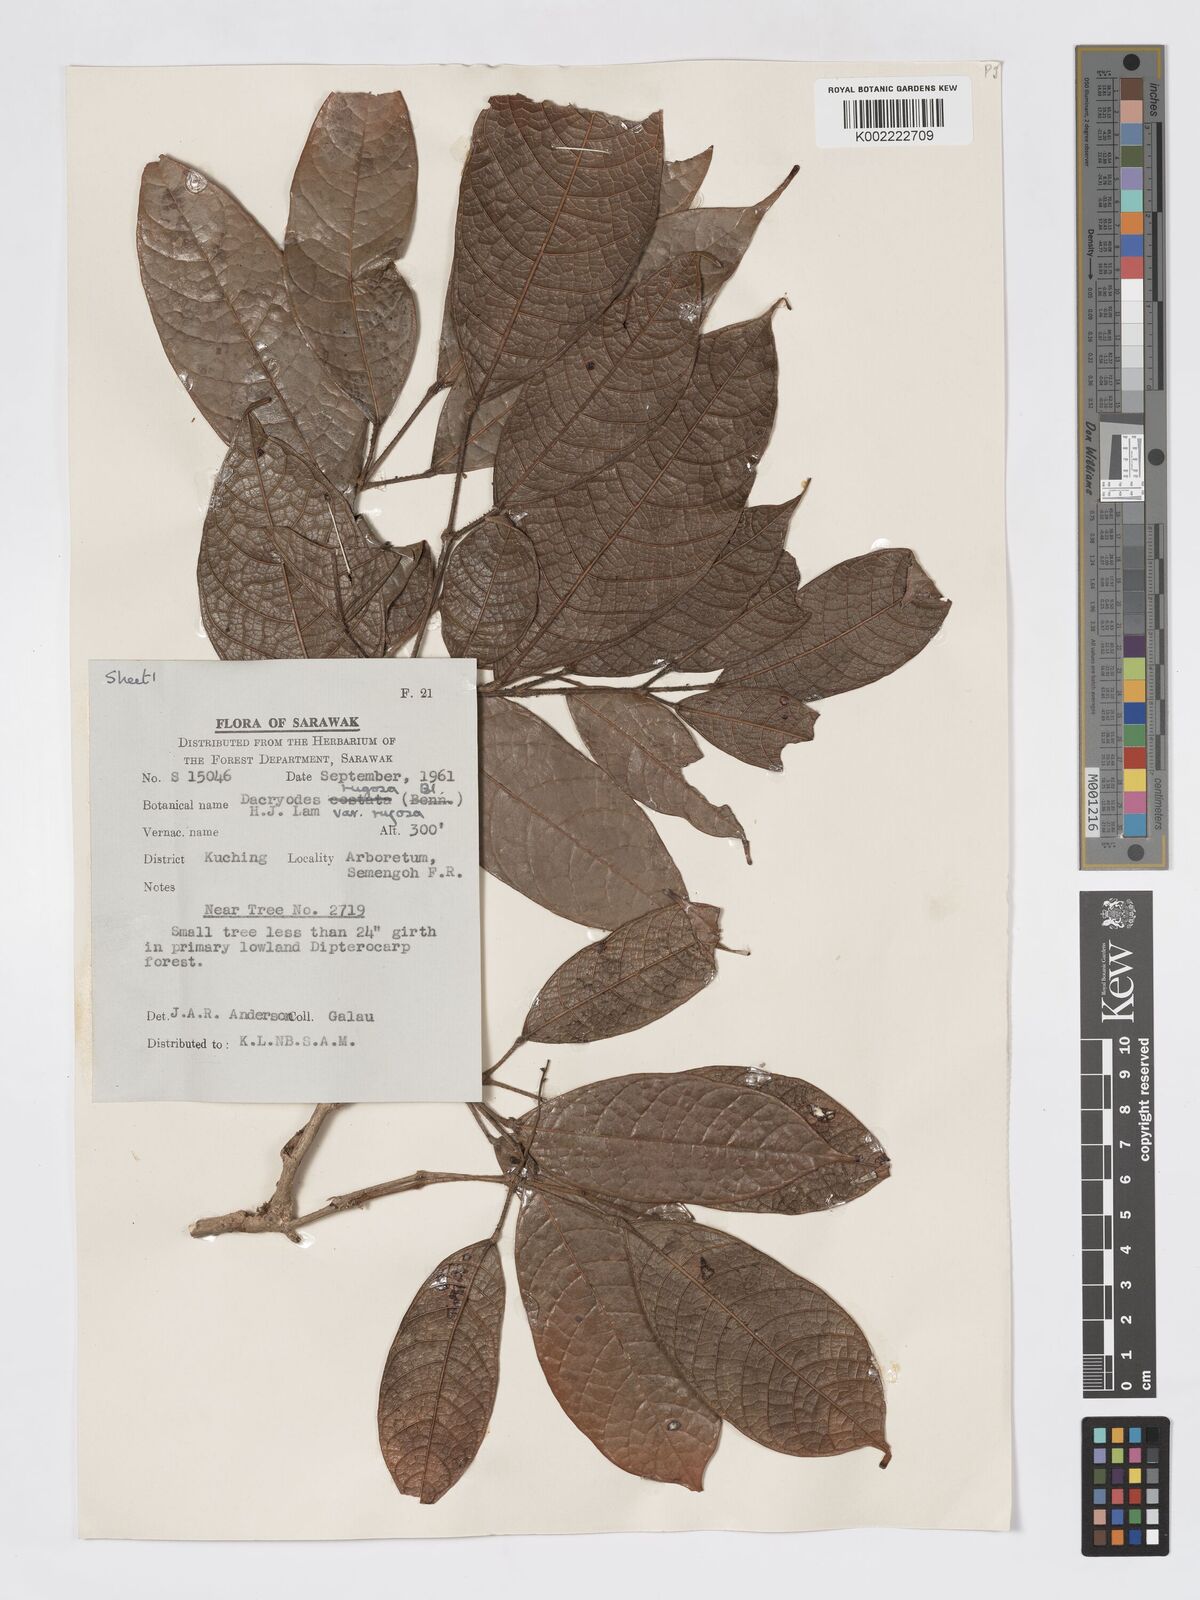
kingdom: Plantae
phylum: Tracheophyta
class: Magnoliopsida
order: Sapindales
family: Burseraceae
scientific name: Burseraceae
